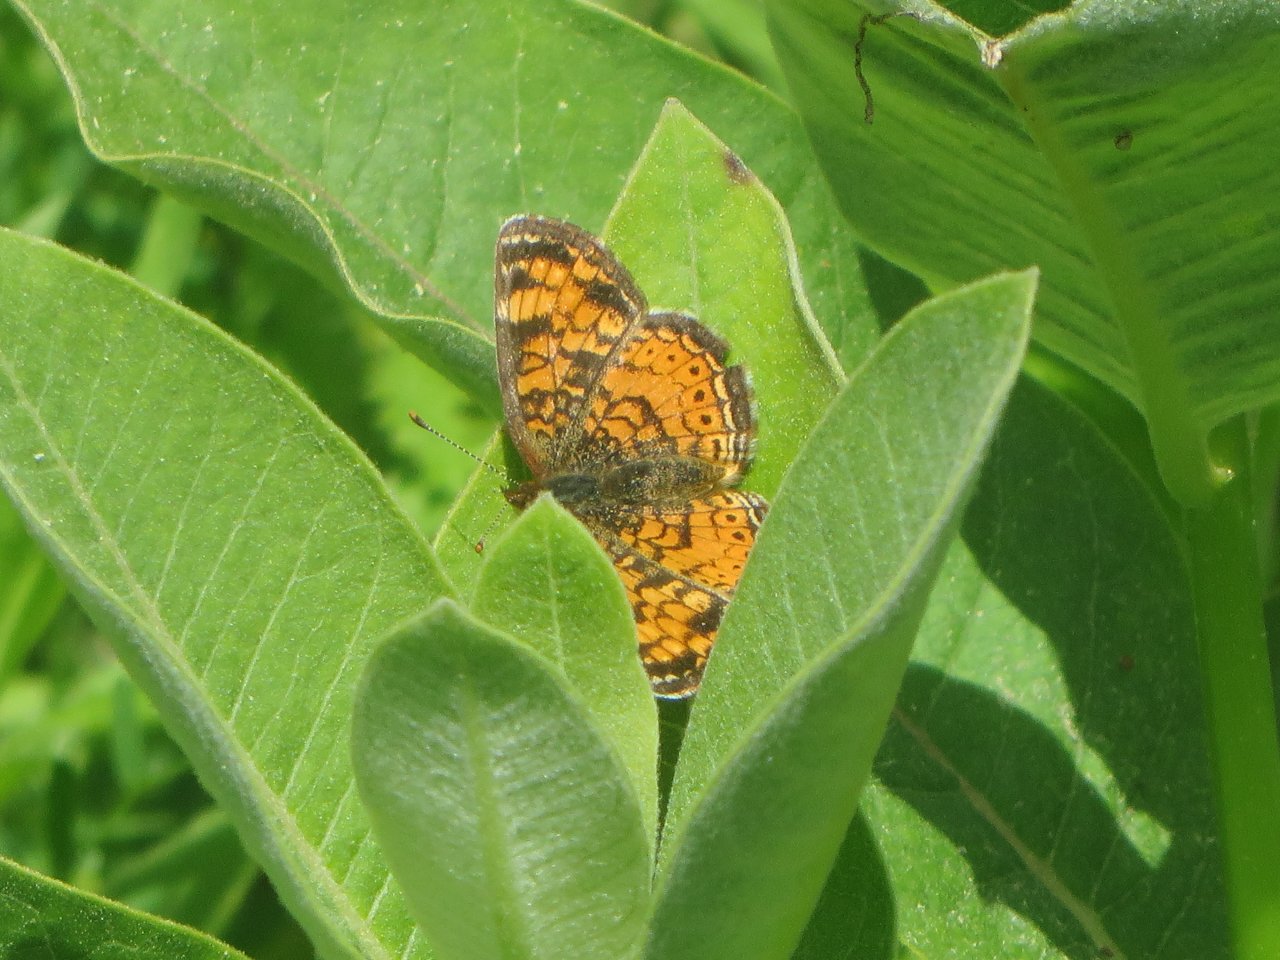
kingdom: Animalia
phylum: Arthropoda
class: Insecta
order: Lepidoptera
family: Nymphalidae
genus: Phyciodes
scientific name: Phyciodes tharos
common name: Pearl Crescent
